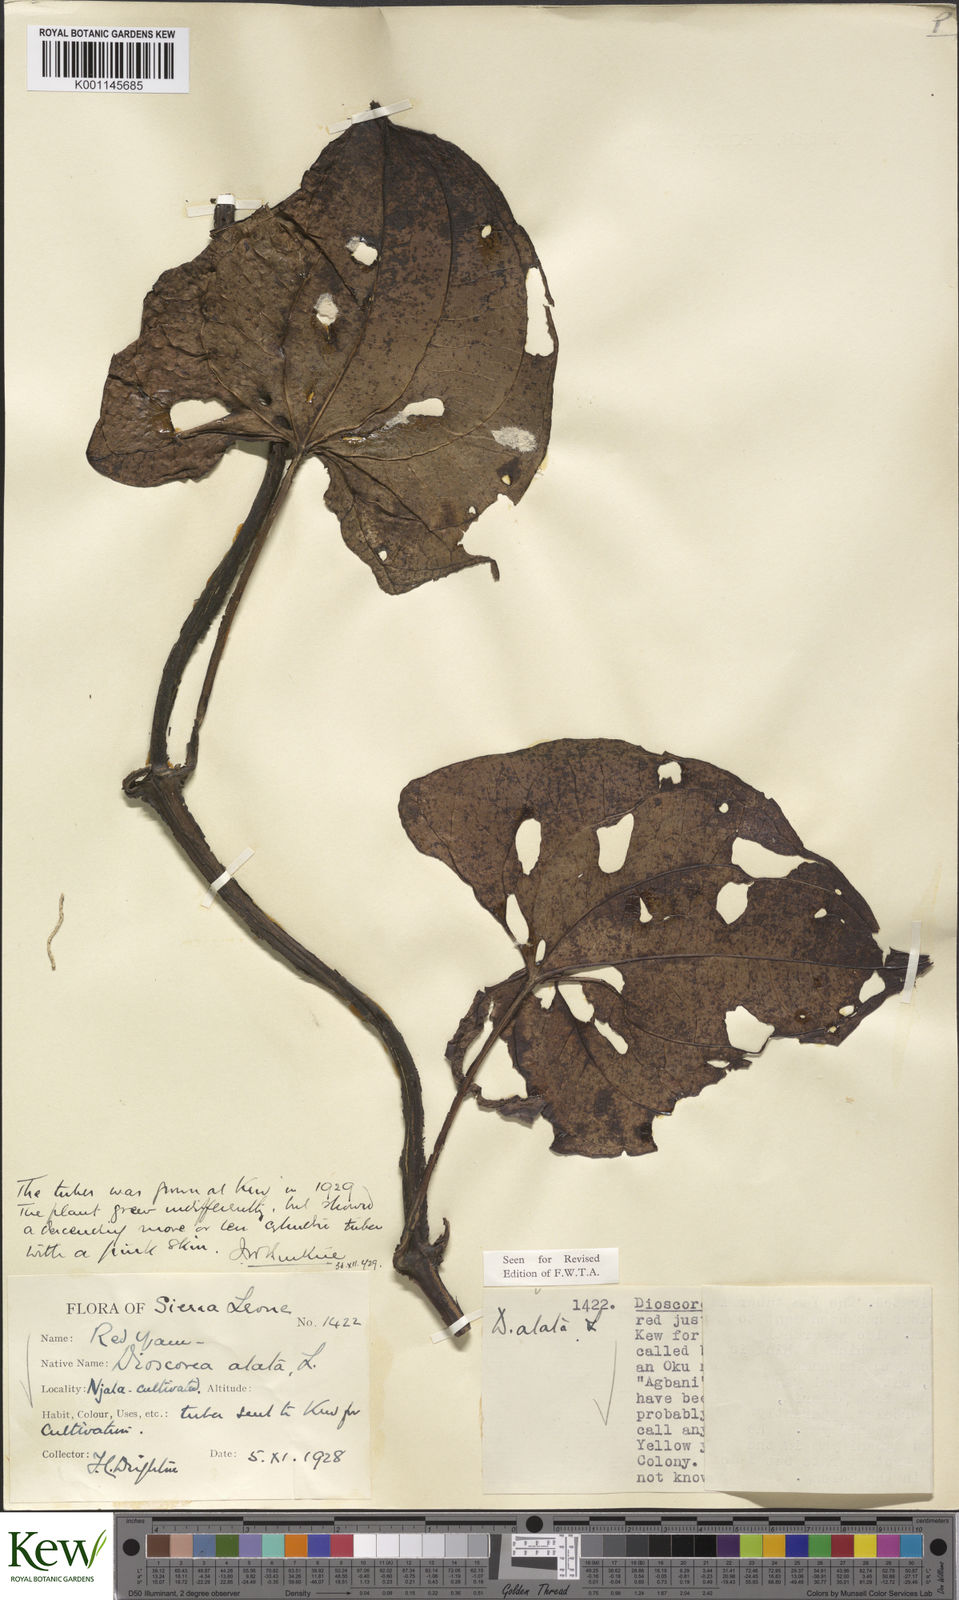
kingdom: Plantae
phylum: Tracheophyta
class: Liliopsida
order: Dioscoreales
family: Dioscoreaceae
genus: Dioscorea
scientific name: Dioscorea alata
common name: Water yam
